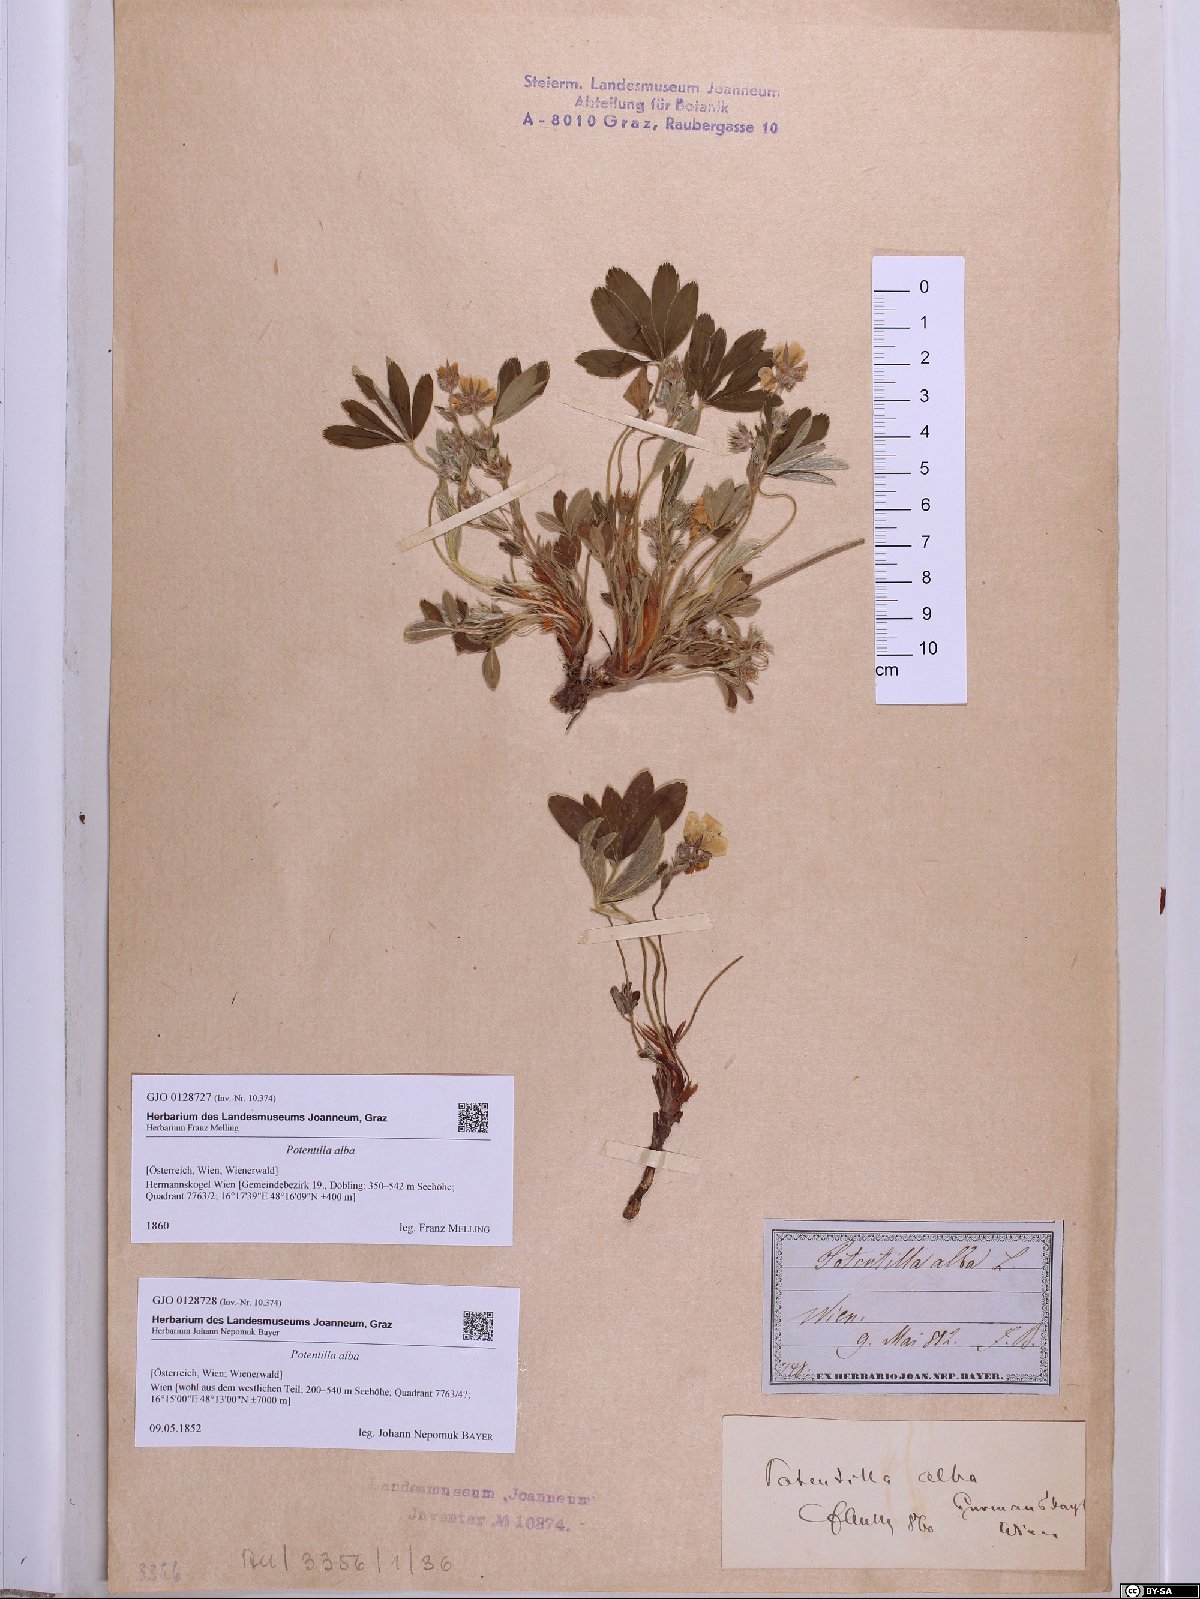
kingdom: Plantae
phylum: Tracheophyta
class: Magnoliopsida
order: Rosales
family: Rosaceae
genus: Potentilla
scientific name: Potentilla alba
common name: White cinquefoil
